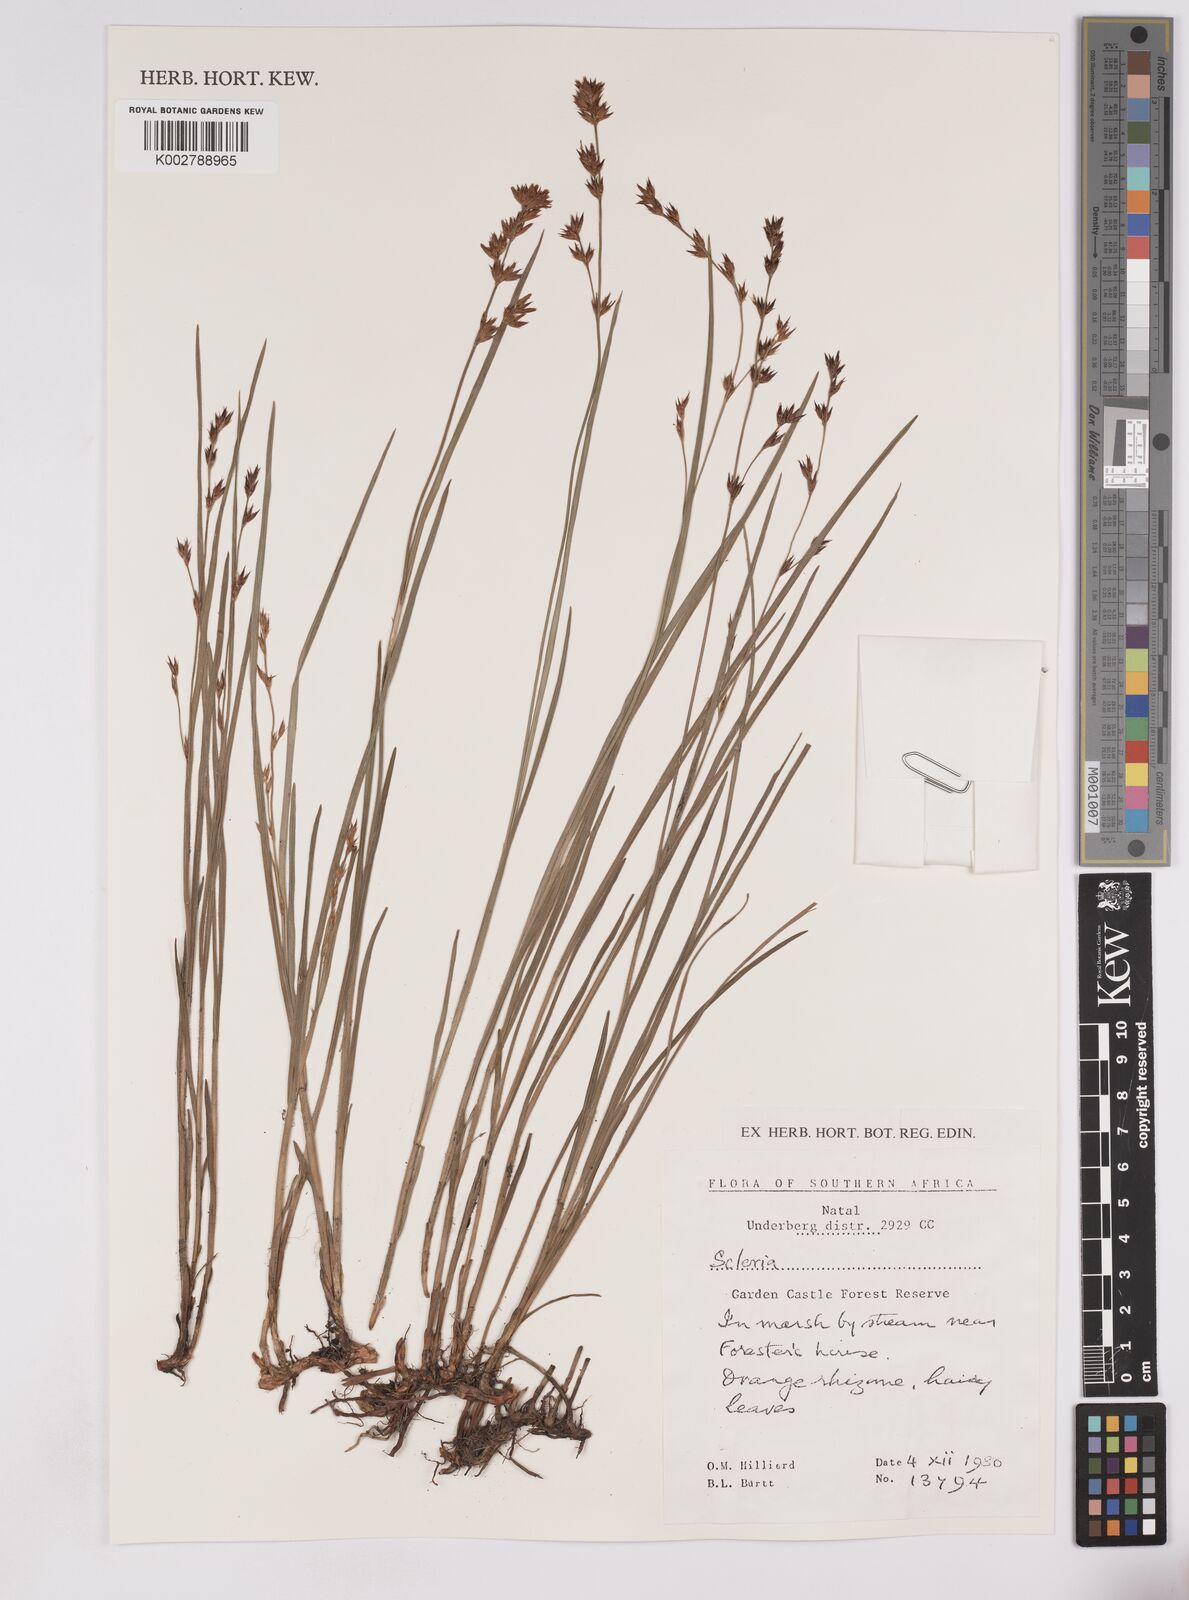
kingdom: Plantae
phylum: Tracheophyta
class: Liliopsida
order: Poales
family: Cyperaceae
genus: Scleria
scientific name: Scleria
